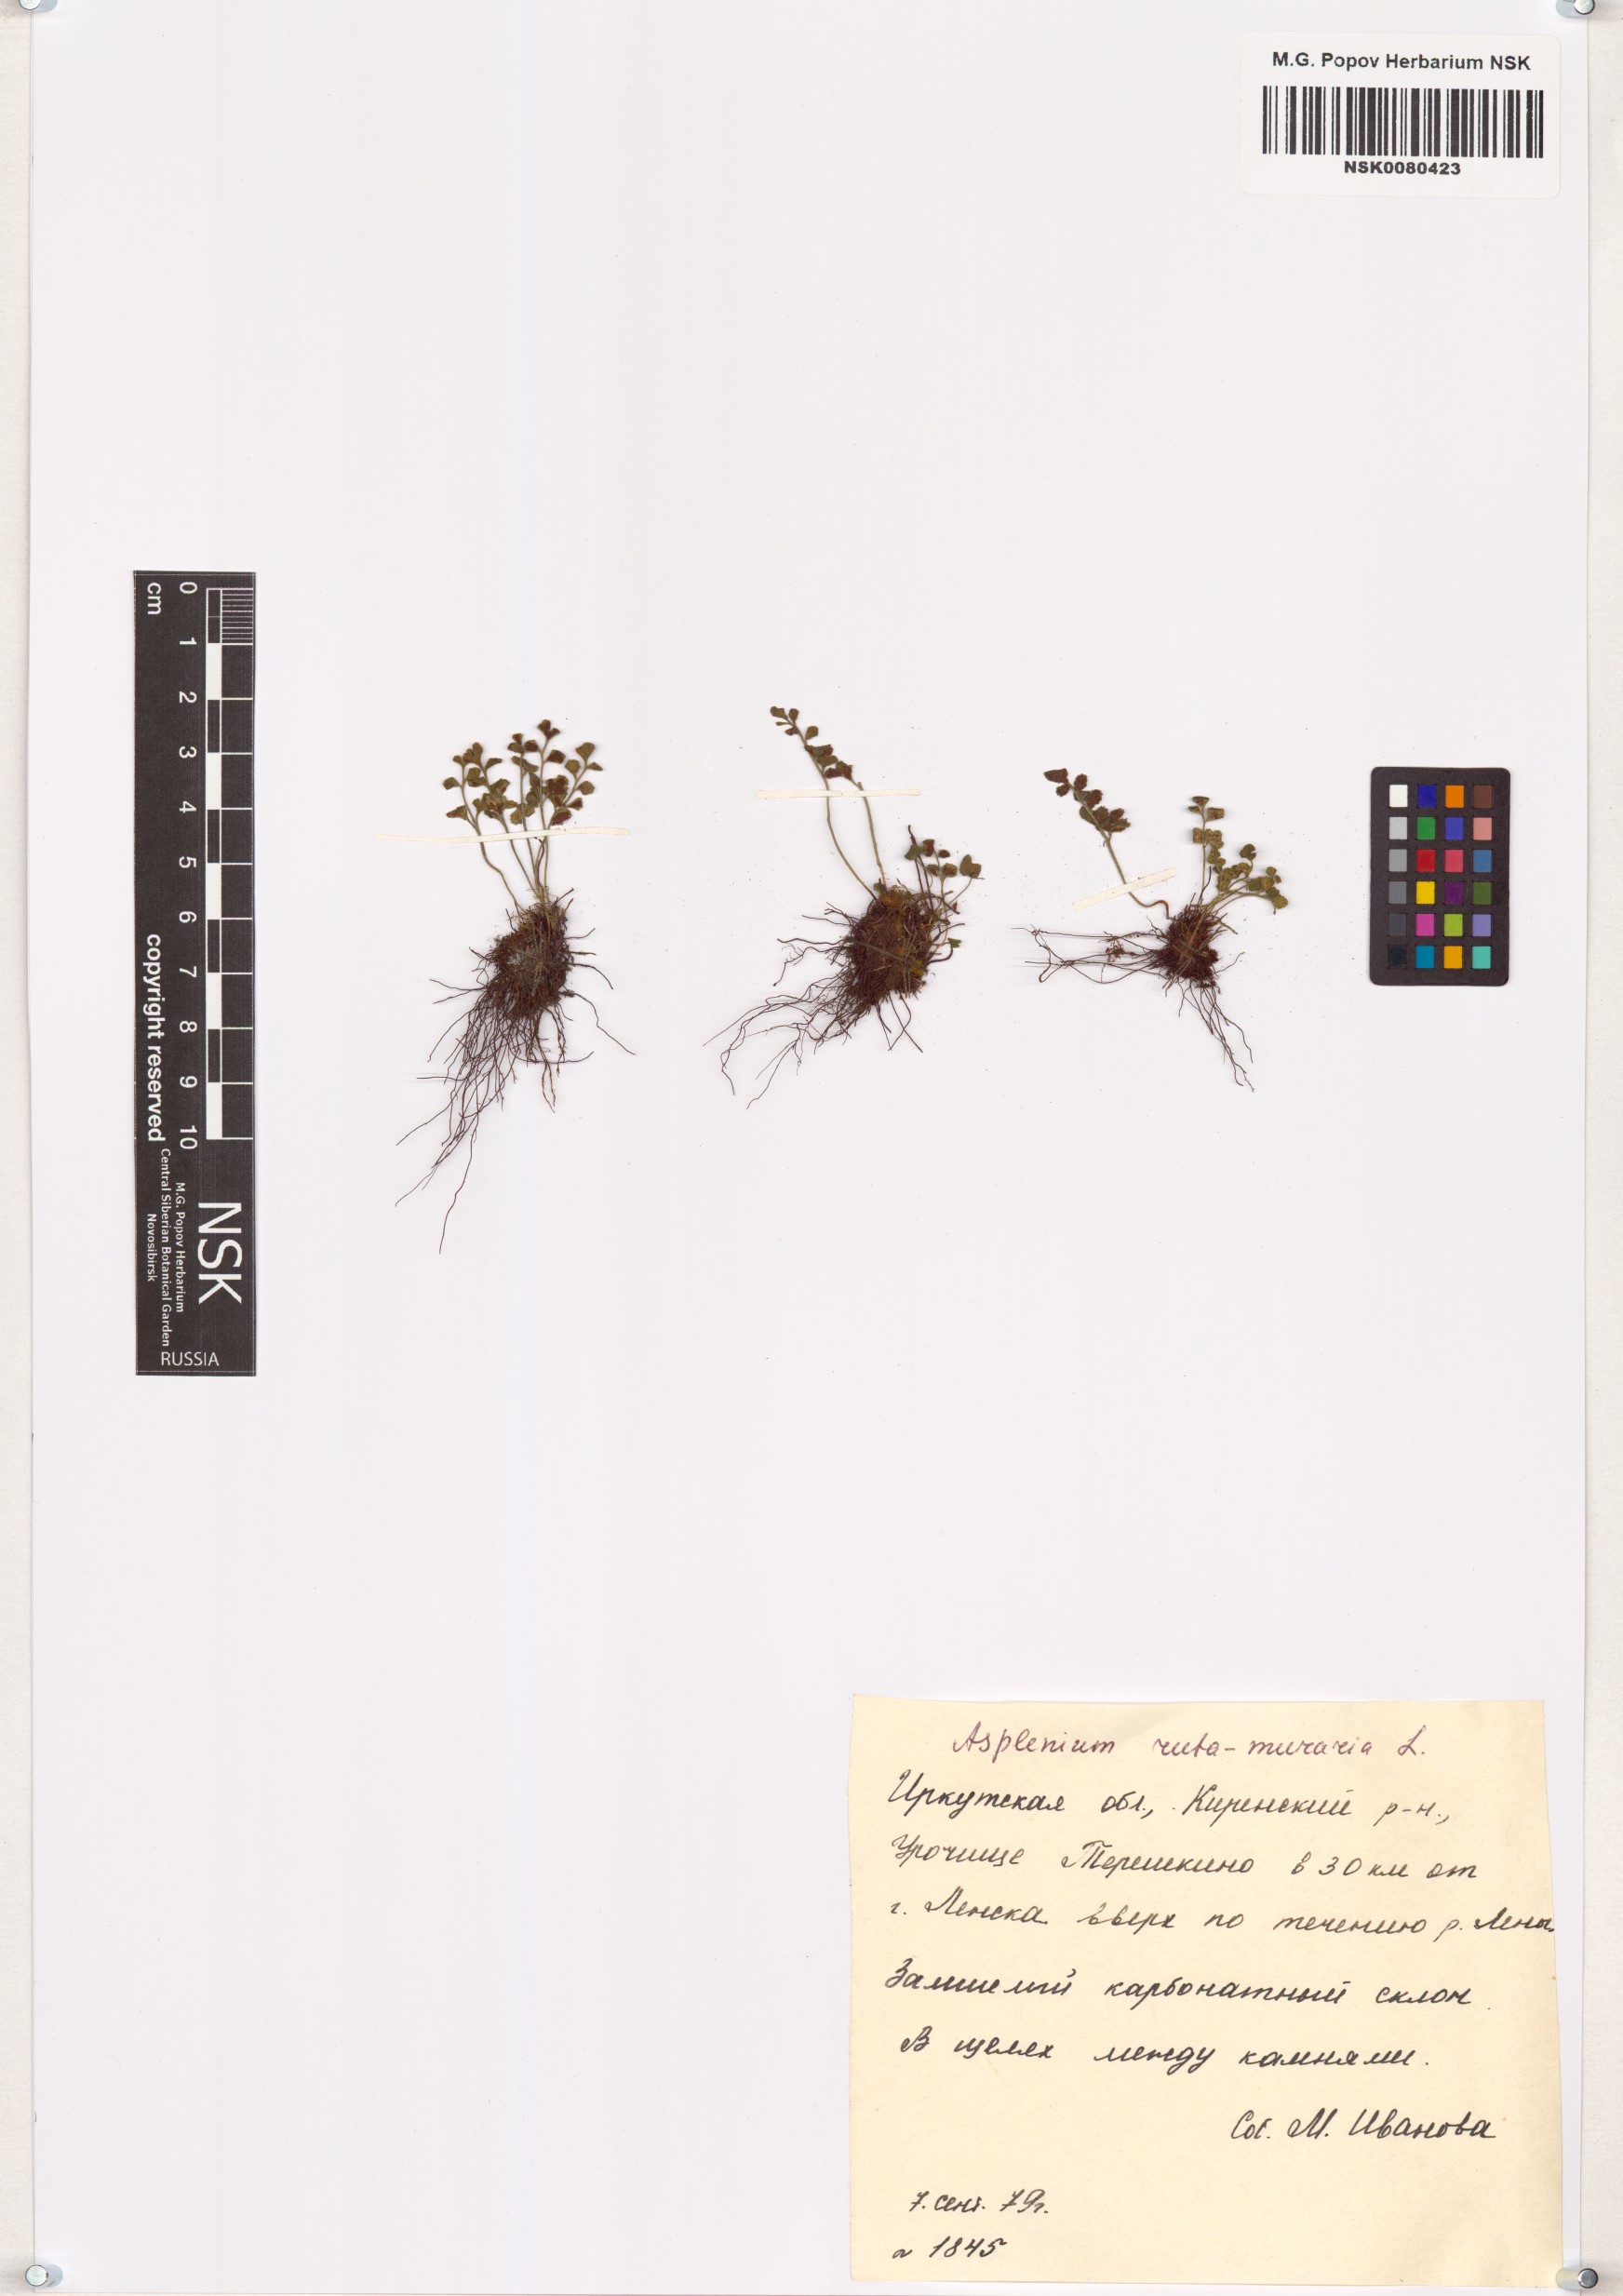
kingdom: Plantae
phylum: Tracheophyta
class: Polypodiopsida
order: Polypodiales
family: Aspleniaceae
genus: Asplenium
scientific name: Asplenium ruta-muraria
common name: Wall-rue
